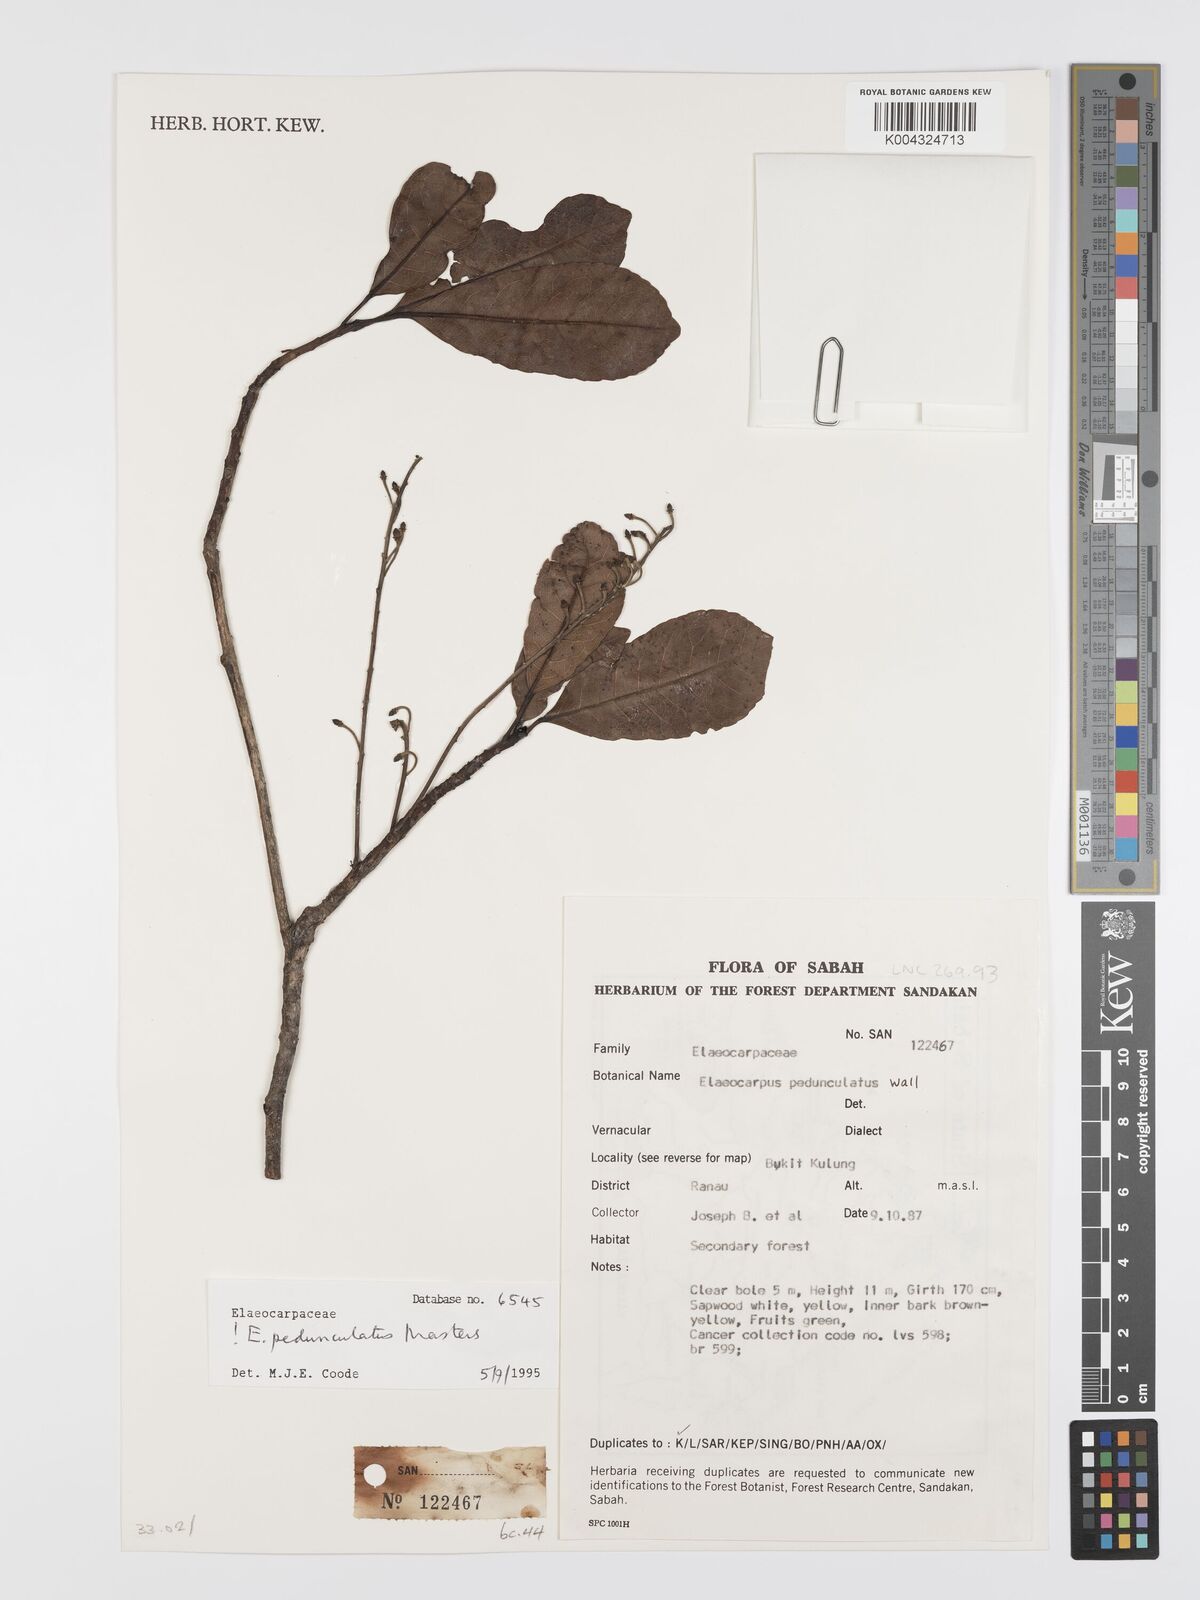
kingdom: Plantae
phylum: Tracheophyta
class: Magnoliopsida
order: Oxalidales
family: Elaeocarpaceae
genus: Elaeocarpus
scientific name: Elaeocarpus pedunculatus
